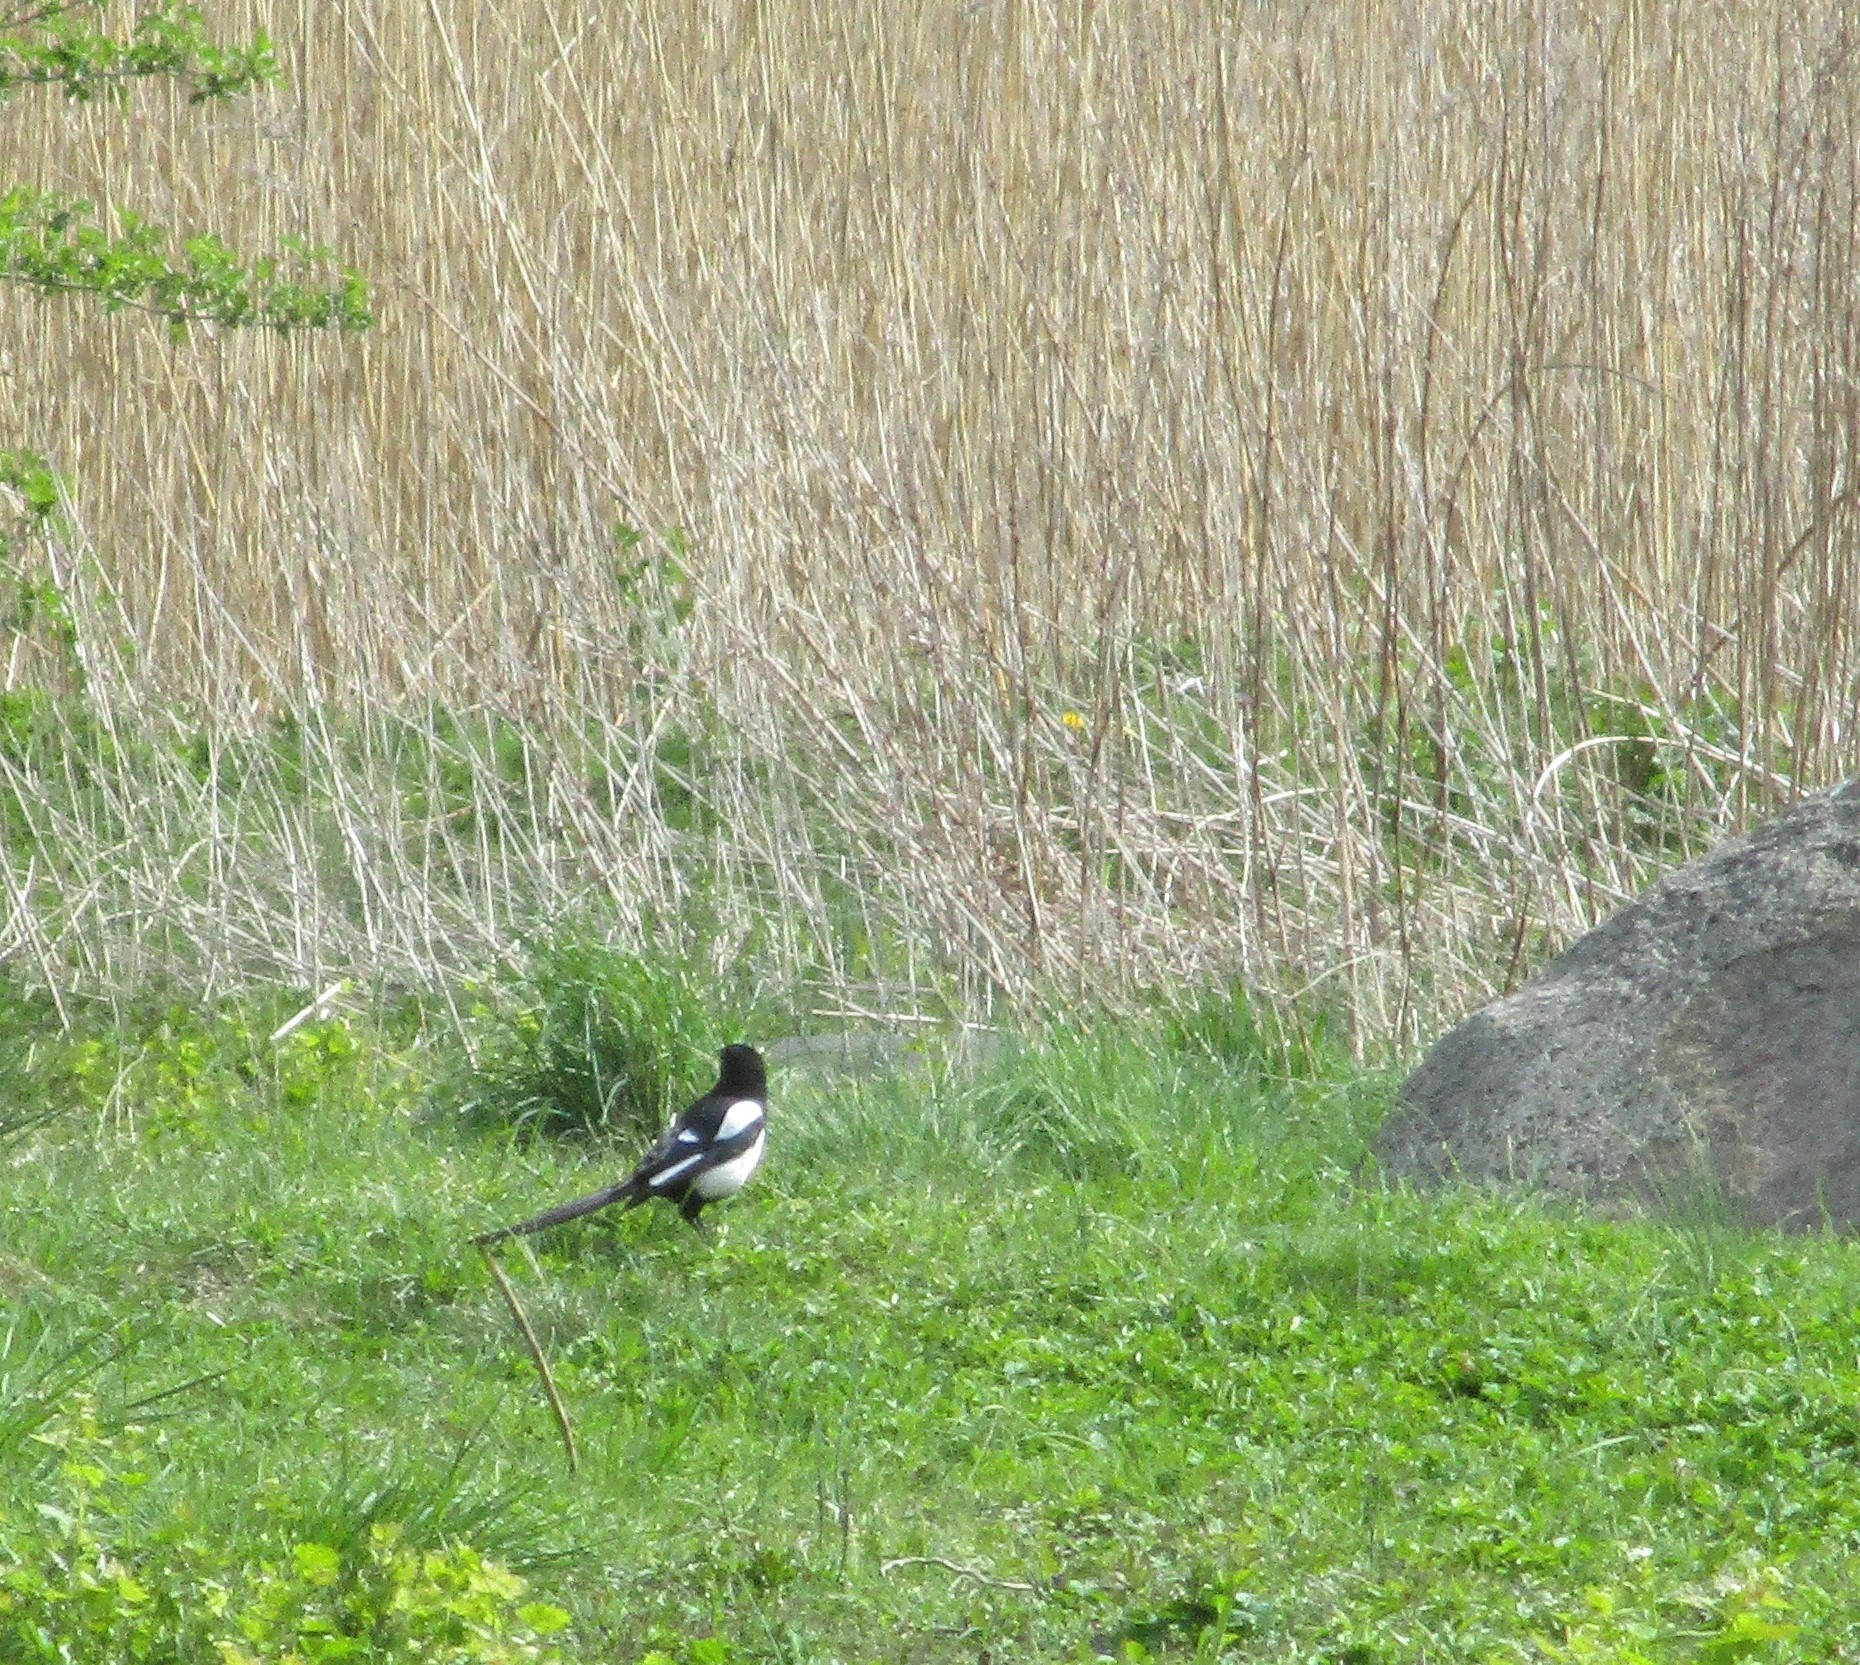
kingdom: Animalia
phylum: Chordata
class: Aves
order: Passeriformes
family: Corvidae
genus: Pica
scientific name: Pica pica
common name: Husskade
